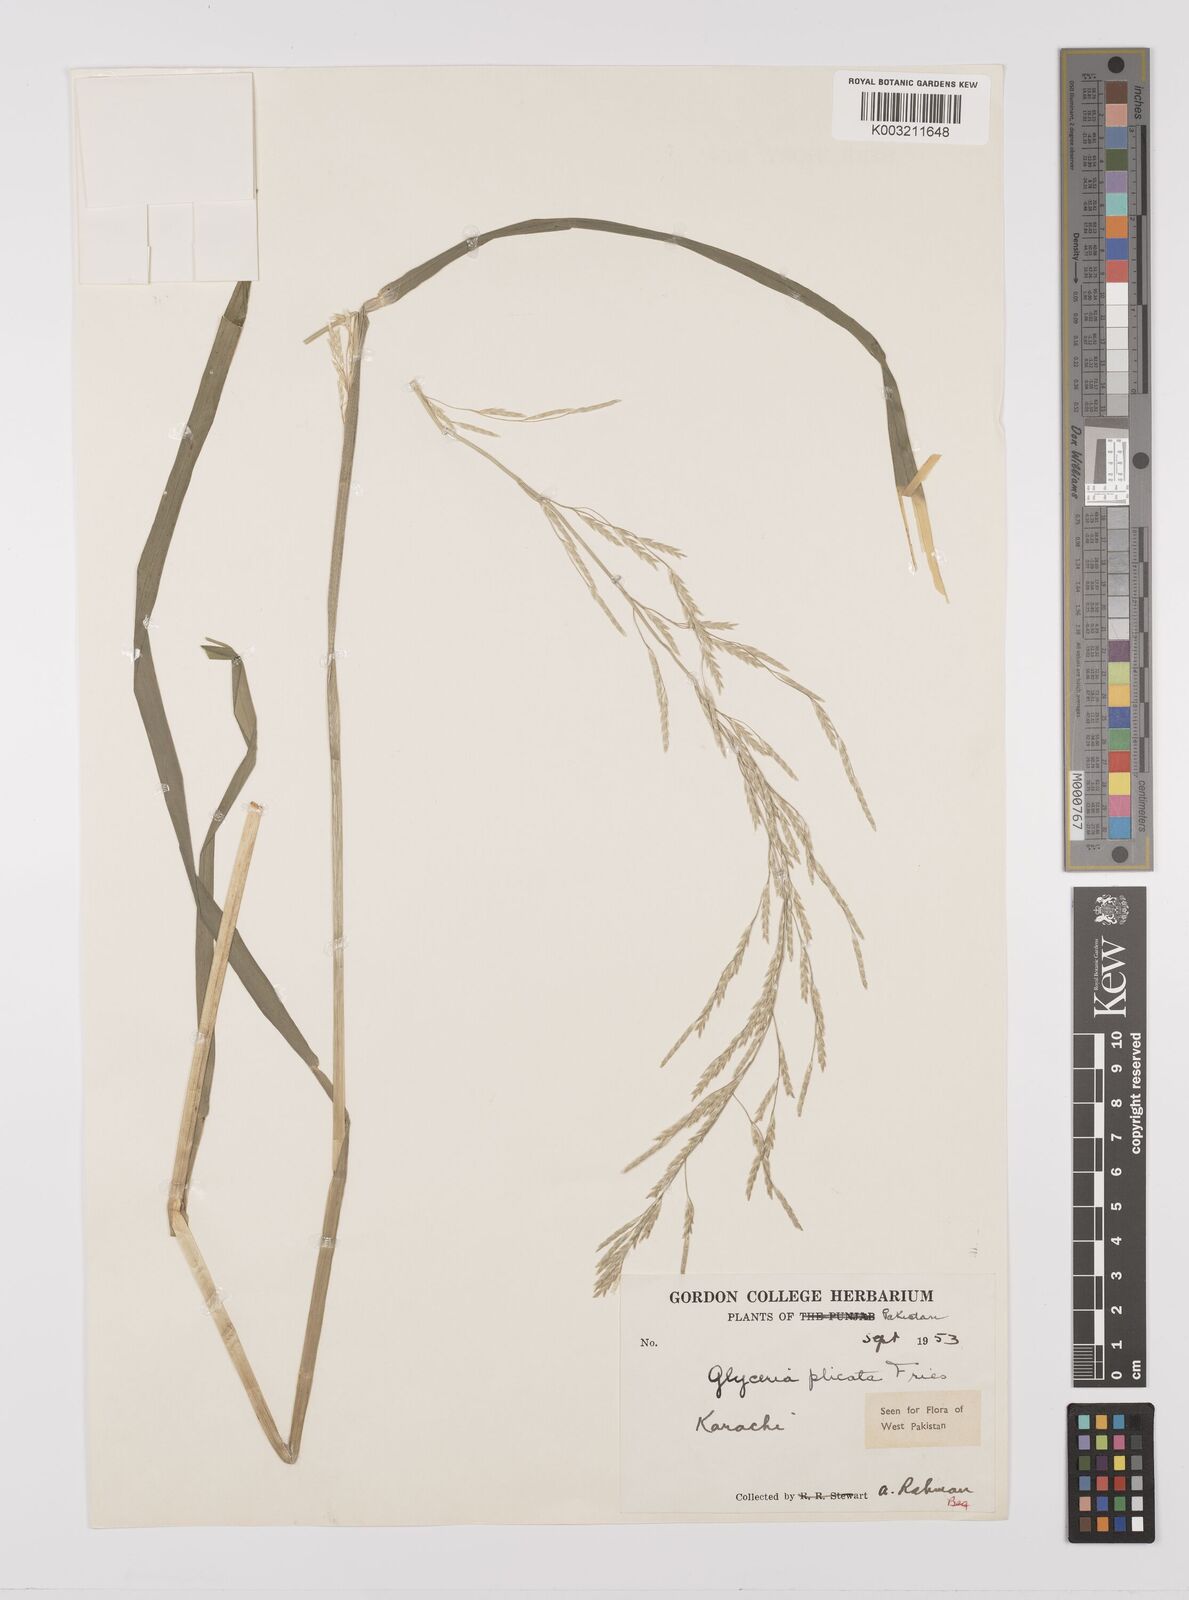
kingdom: Plantae
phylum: Tracheophyta
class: Liliopsida
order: Poales
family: Poaceae
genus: Glyceria
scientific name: Glyceria notata
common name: Plicate sweet-grass
